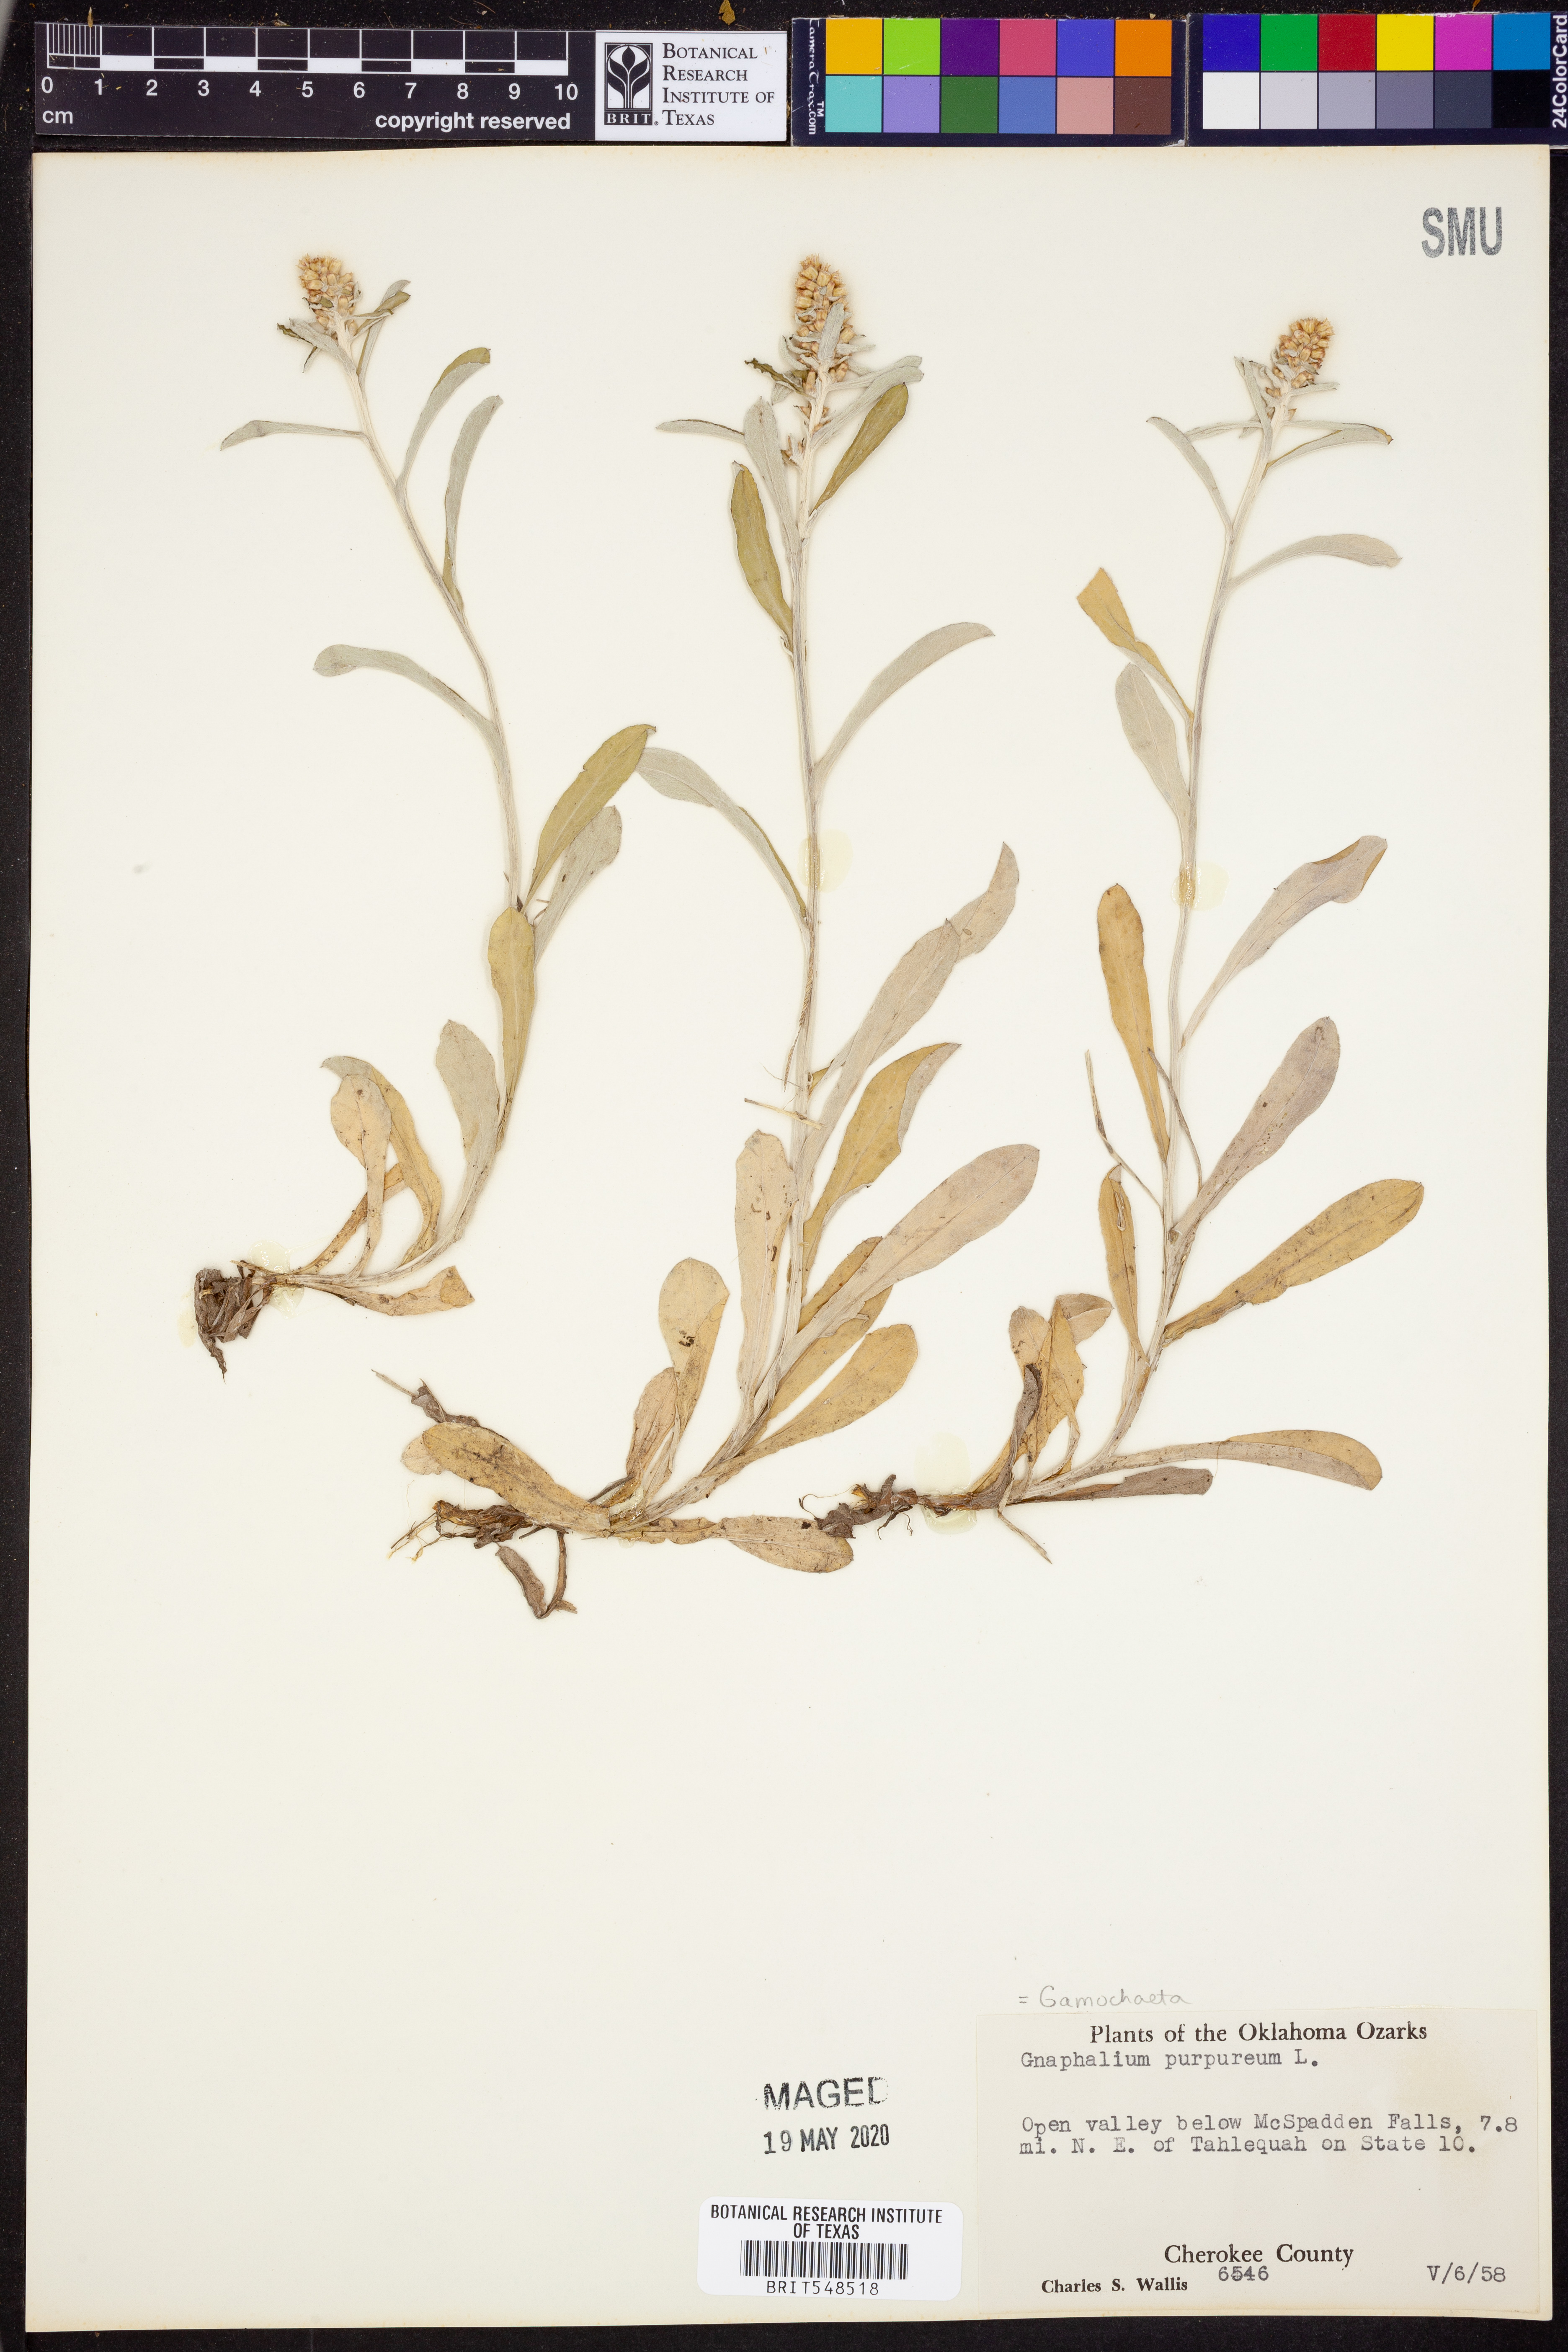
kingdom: Plantae
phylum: Tracheophyta
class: Magnoliopsida
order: Asterales
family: Asteraceae
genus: Gamochaeta
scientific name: Gamochaeta purpurea
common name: Purple cudweed
